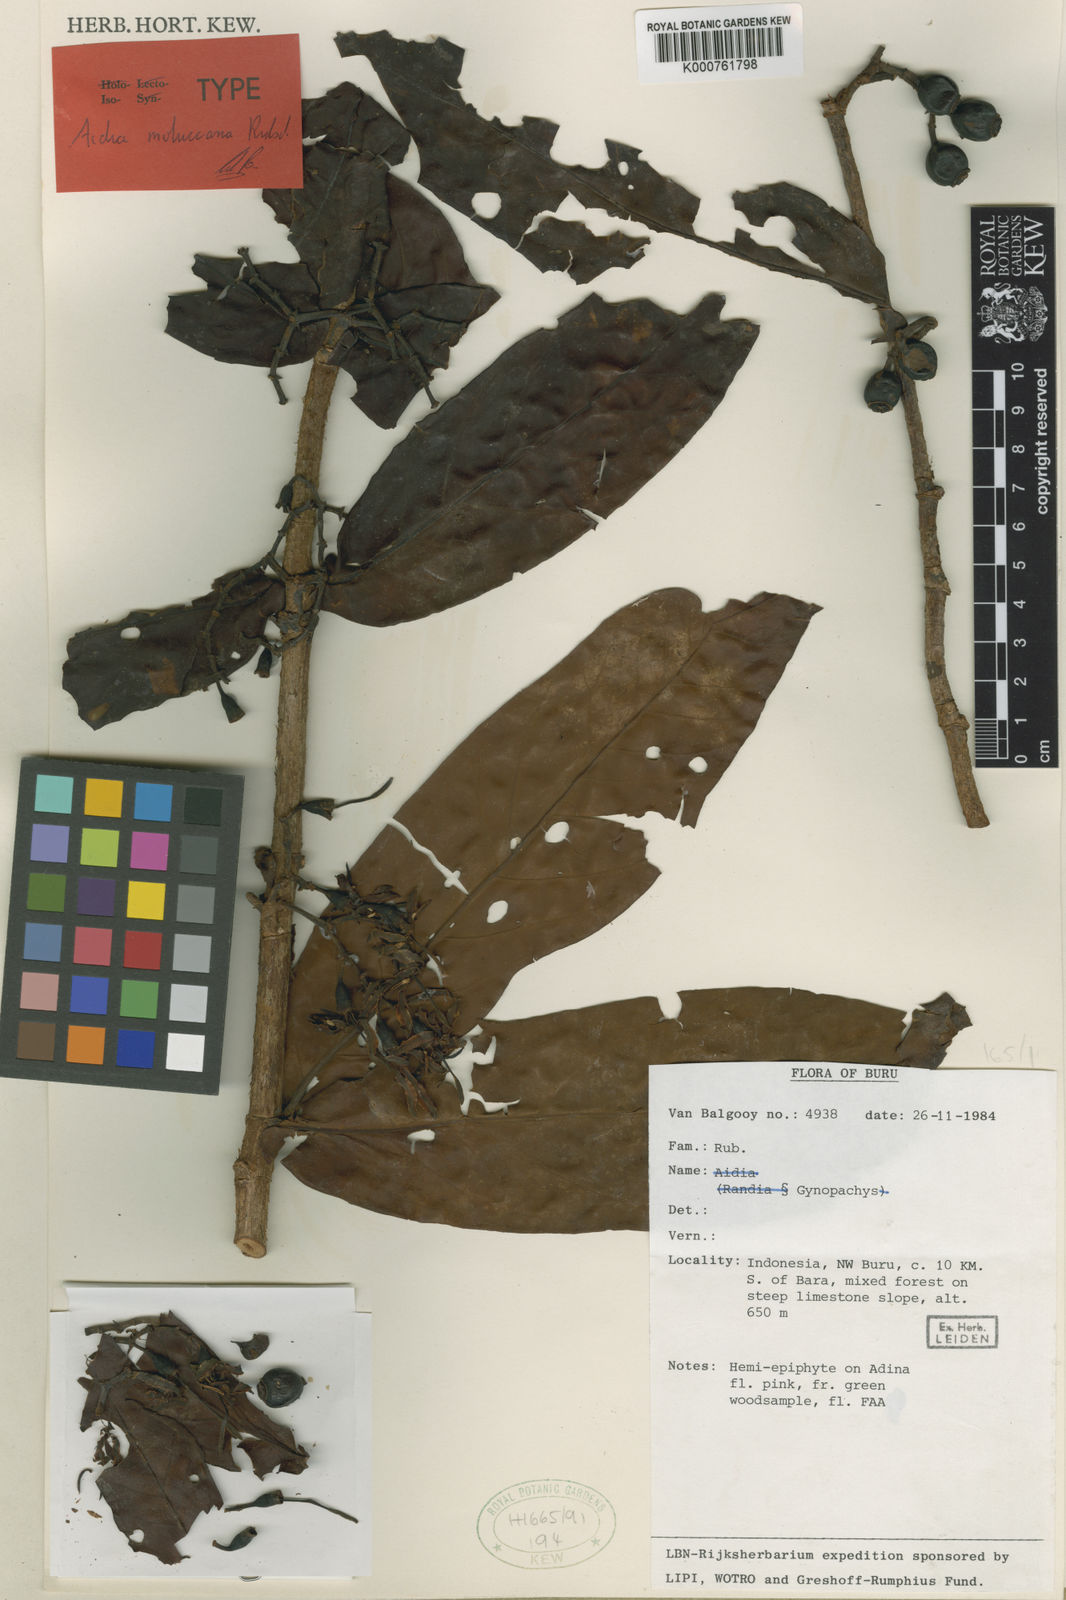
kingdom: Plantae
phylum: Tracheophyta
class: Magnoliopsida
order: Gentianales
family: Rubiaceae
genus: Aidia
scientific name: Aidia moluccana
